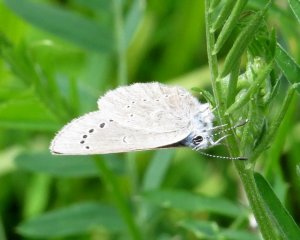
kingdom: Animalia
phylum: Arthropoda
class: Insecta
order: Lepidoptera
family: Lycaenidae
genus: Glaucopsyche
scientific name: Glaucopsyche lygdamus
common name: Silvery Blue
